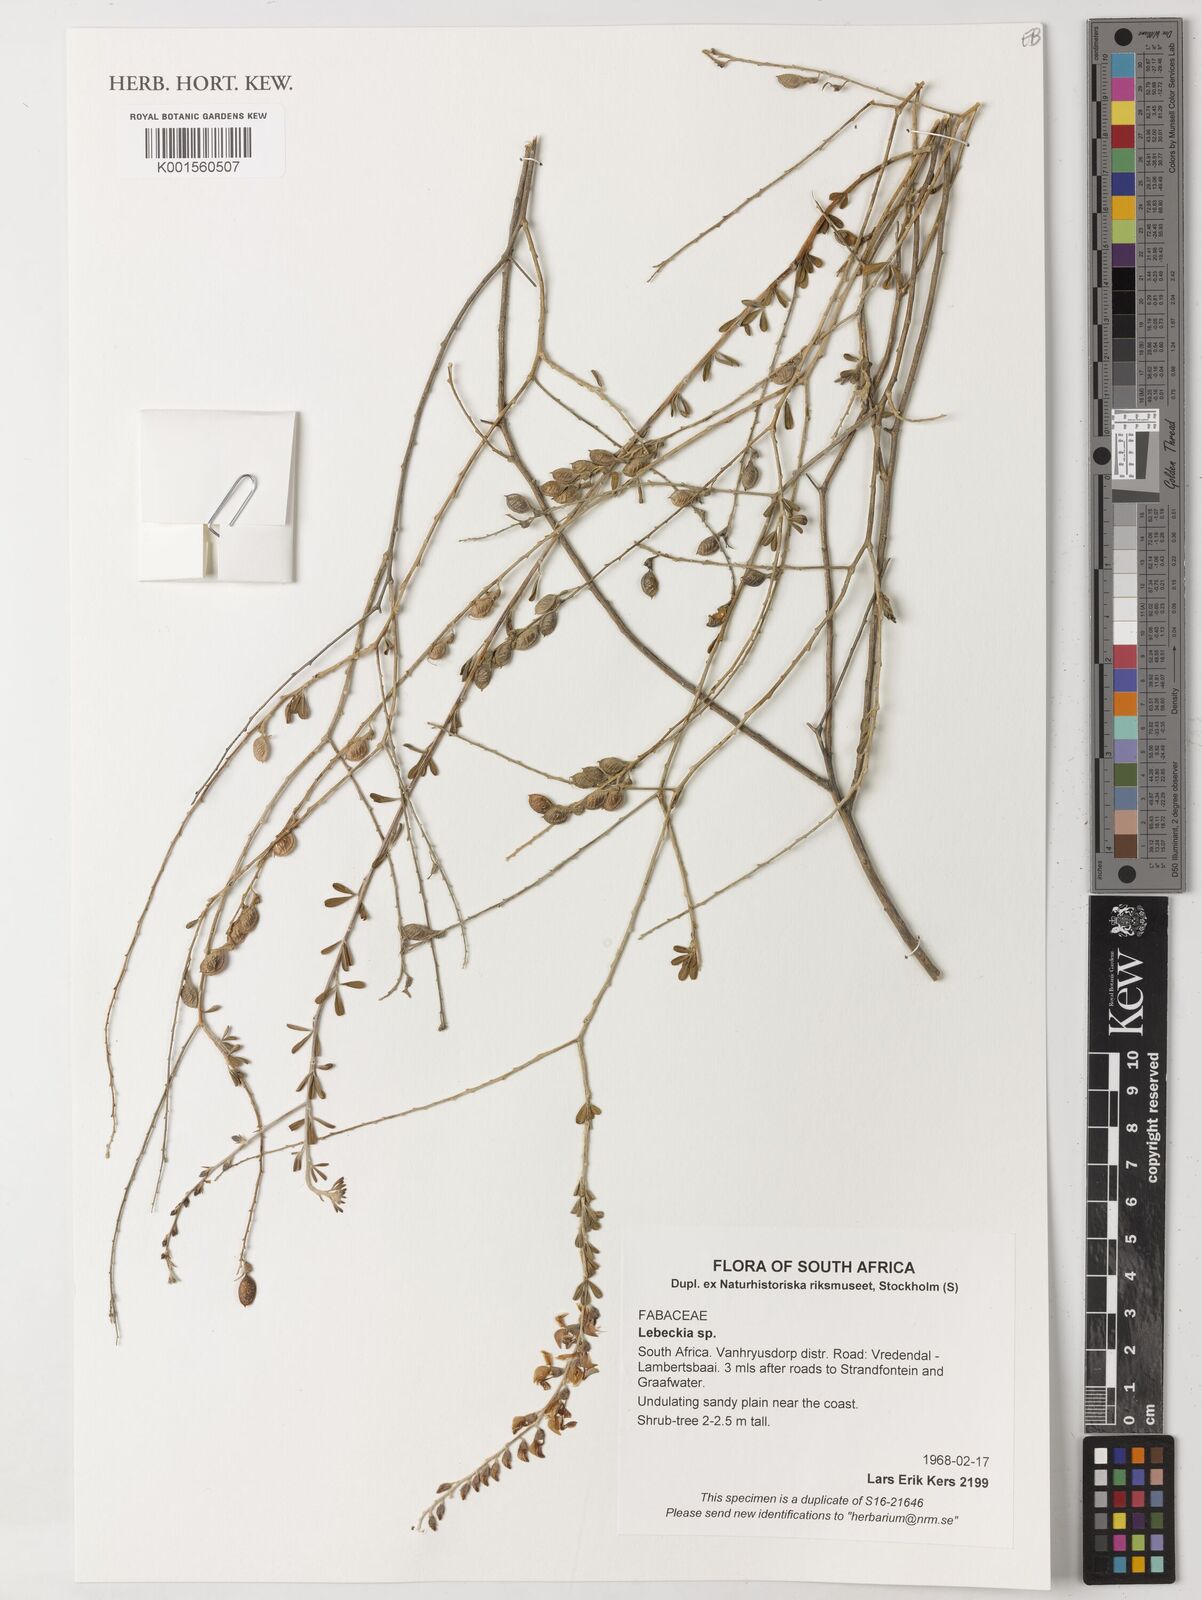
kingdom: Plantae
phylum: Tracheophyta
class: Magnoliopsida
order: Fabales
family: Fabaceae
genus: Lebeckia
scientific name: Lebeckia
